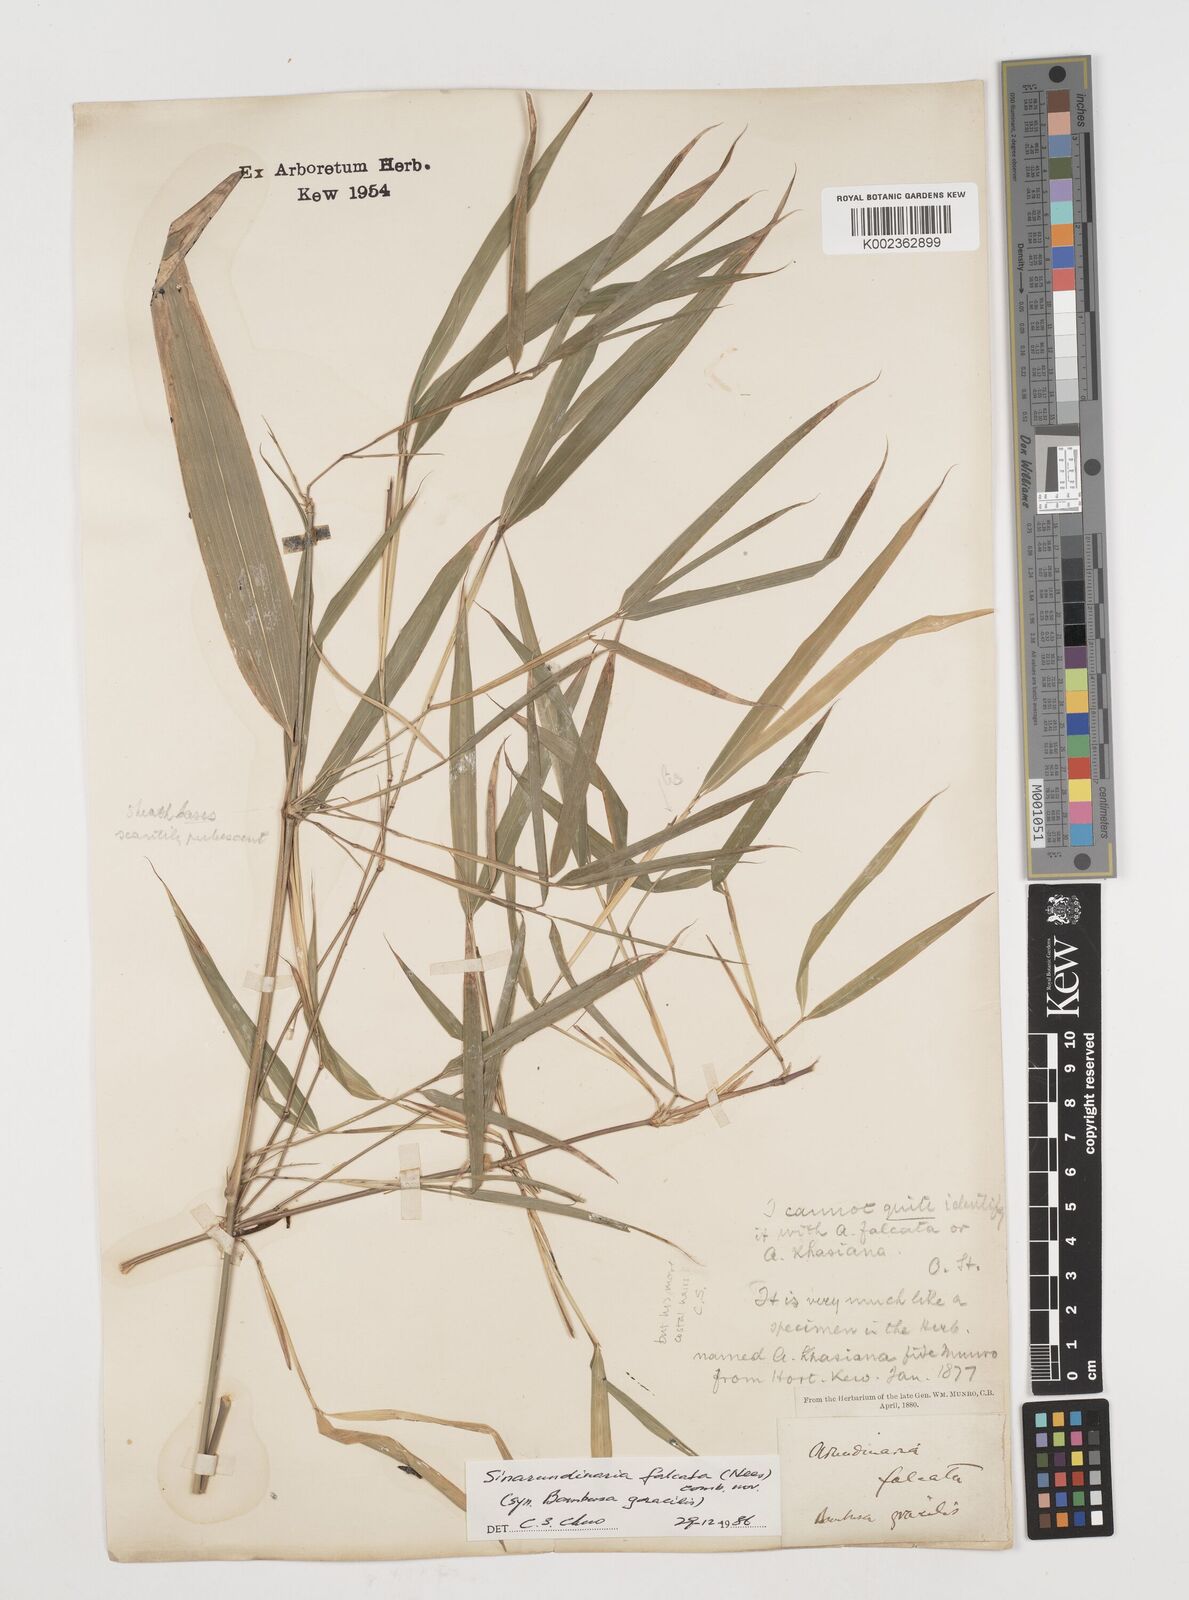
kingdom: Plantae
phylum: Tracheophyta
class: Liliopsida
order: Poales
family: Poaceae
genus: Drepanostachyum
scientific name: Drepanostachyum
